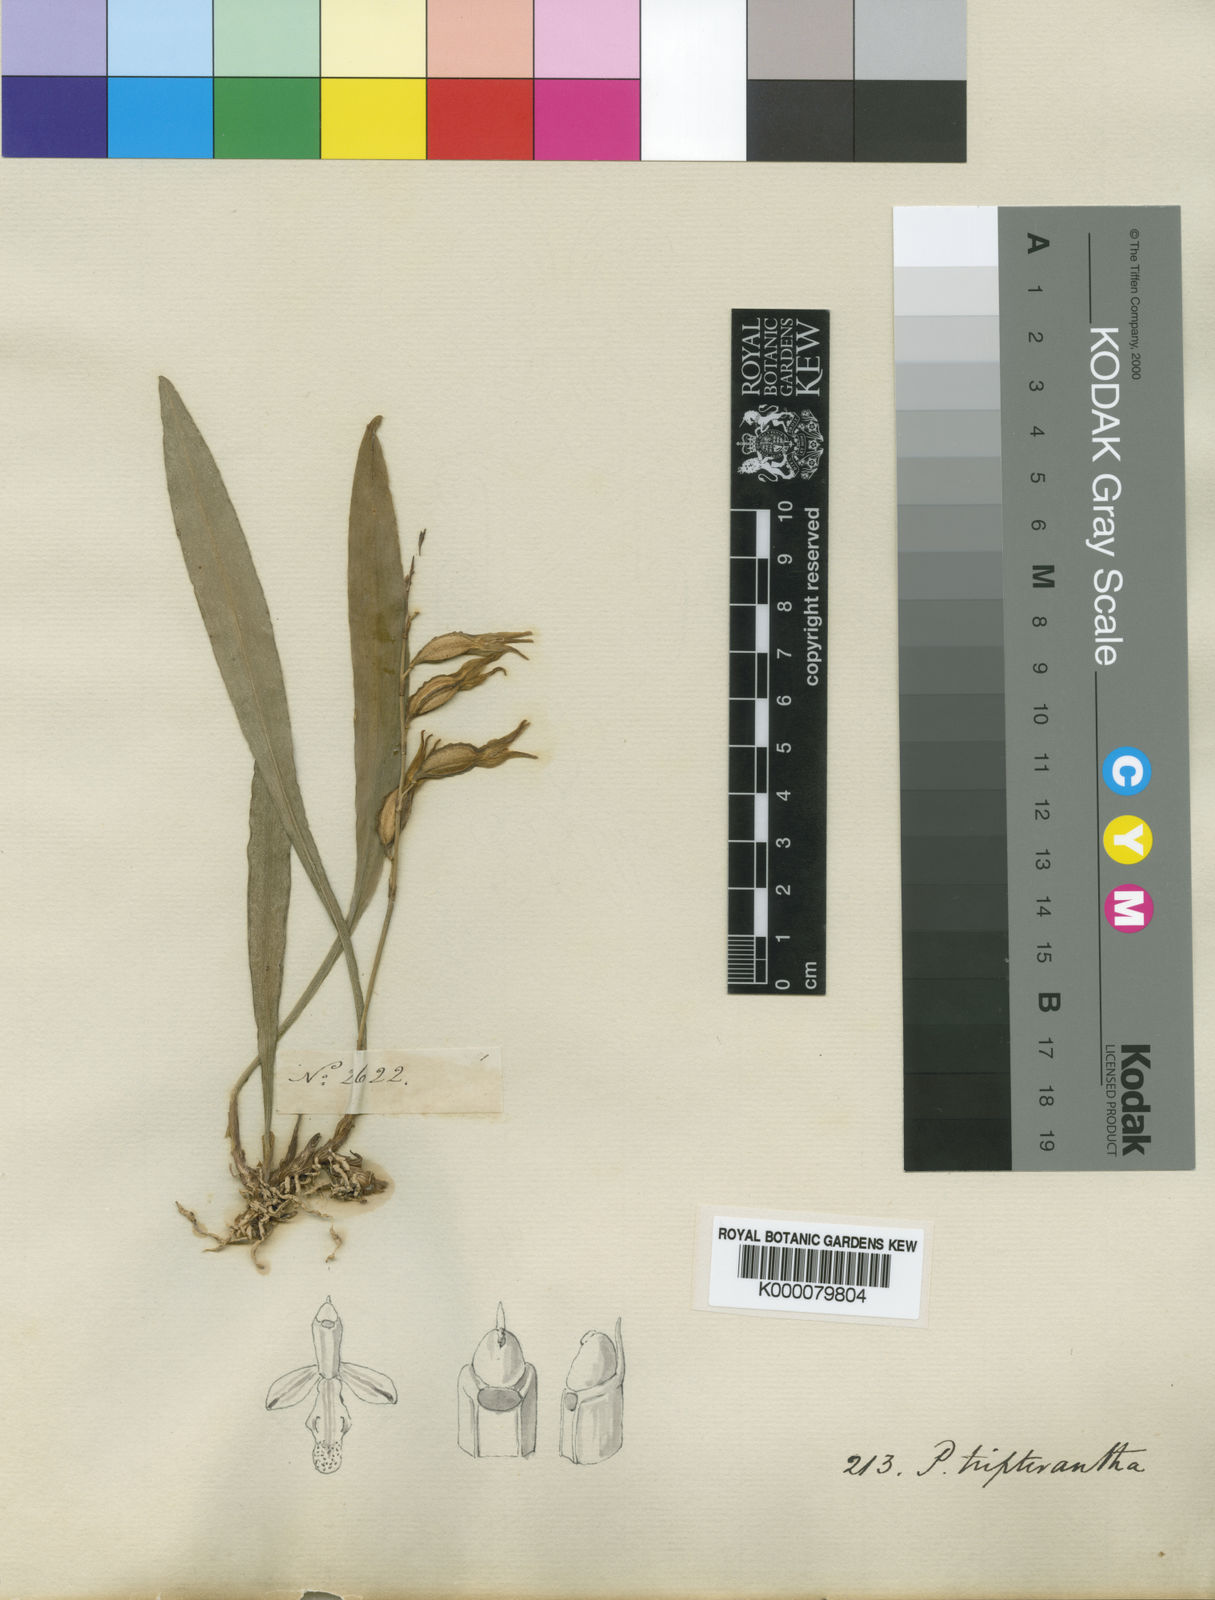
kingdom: Plantae
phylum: Tracheophyta
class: Liliopsida
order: Asparagales
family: Orchidaceae
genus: Pabstiella
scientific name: Pabstiella tripterantha
